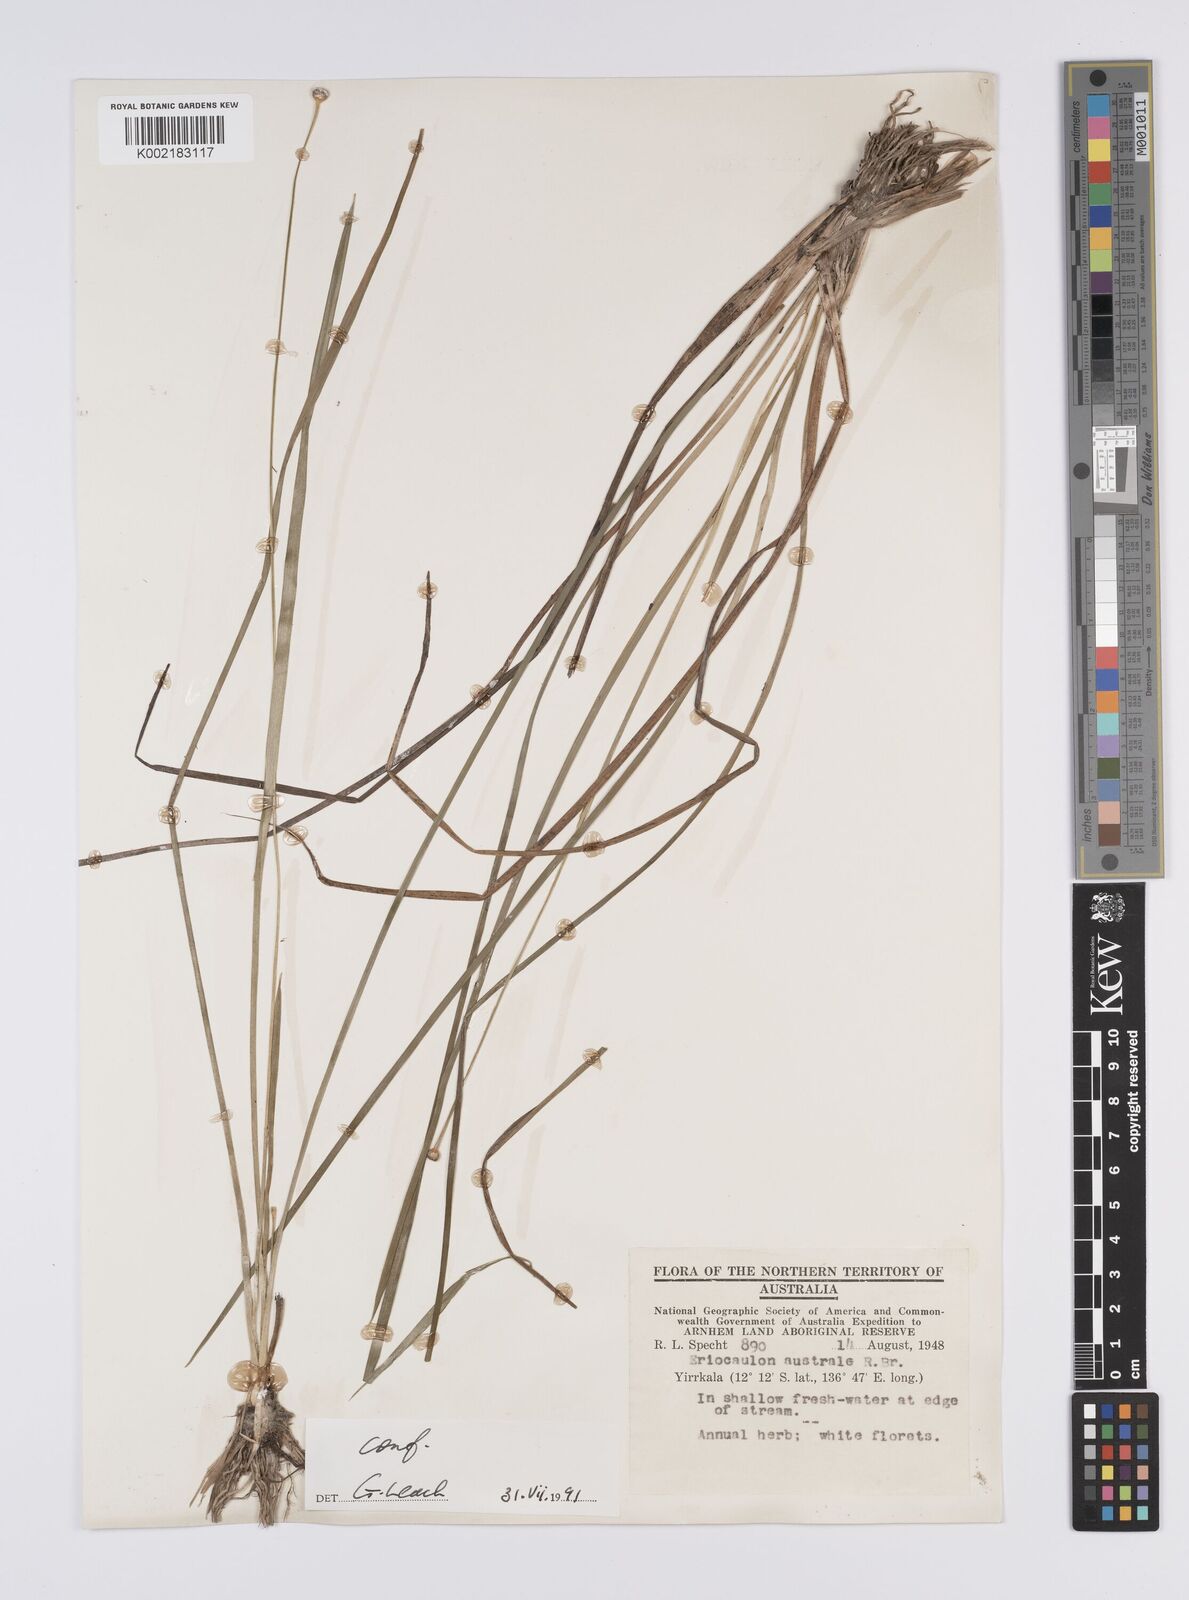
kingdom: Plantae
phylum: Tracheophyta
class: Liliopsida
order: Poales
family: Eriocaulaceae
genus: Eriocaulon
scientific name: Eriocaulon australe
